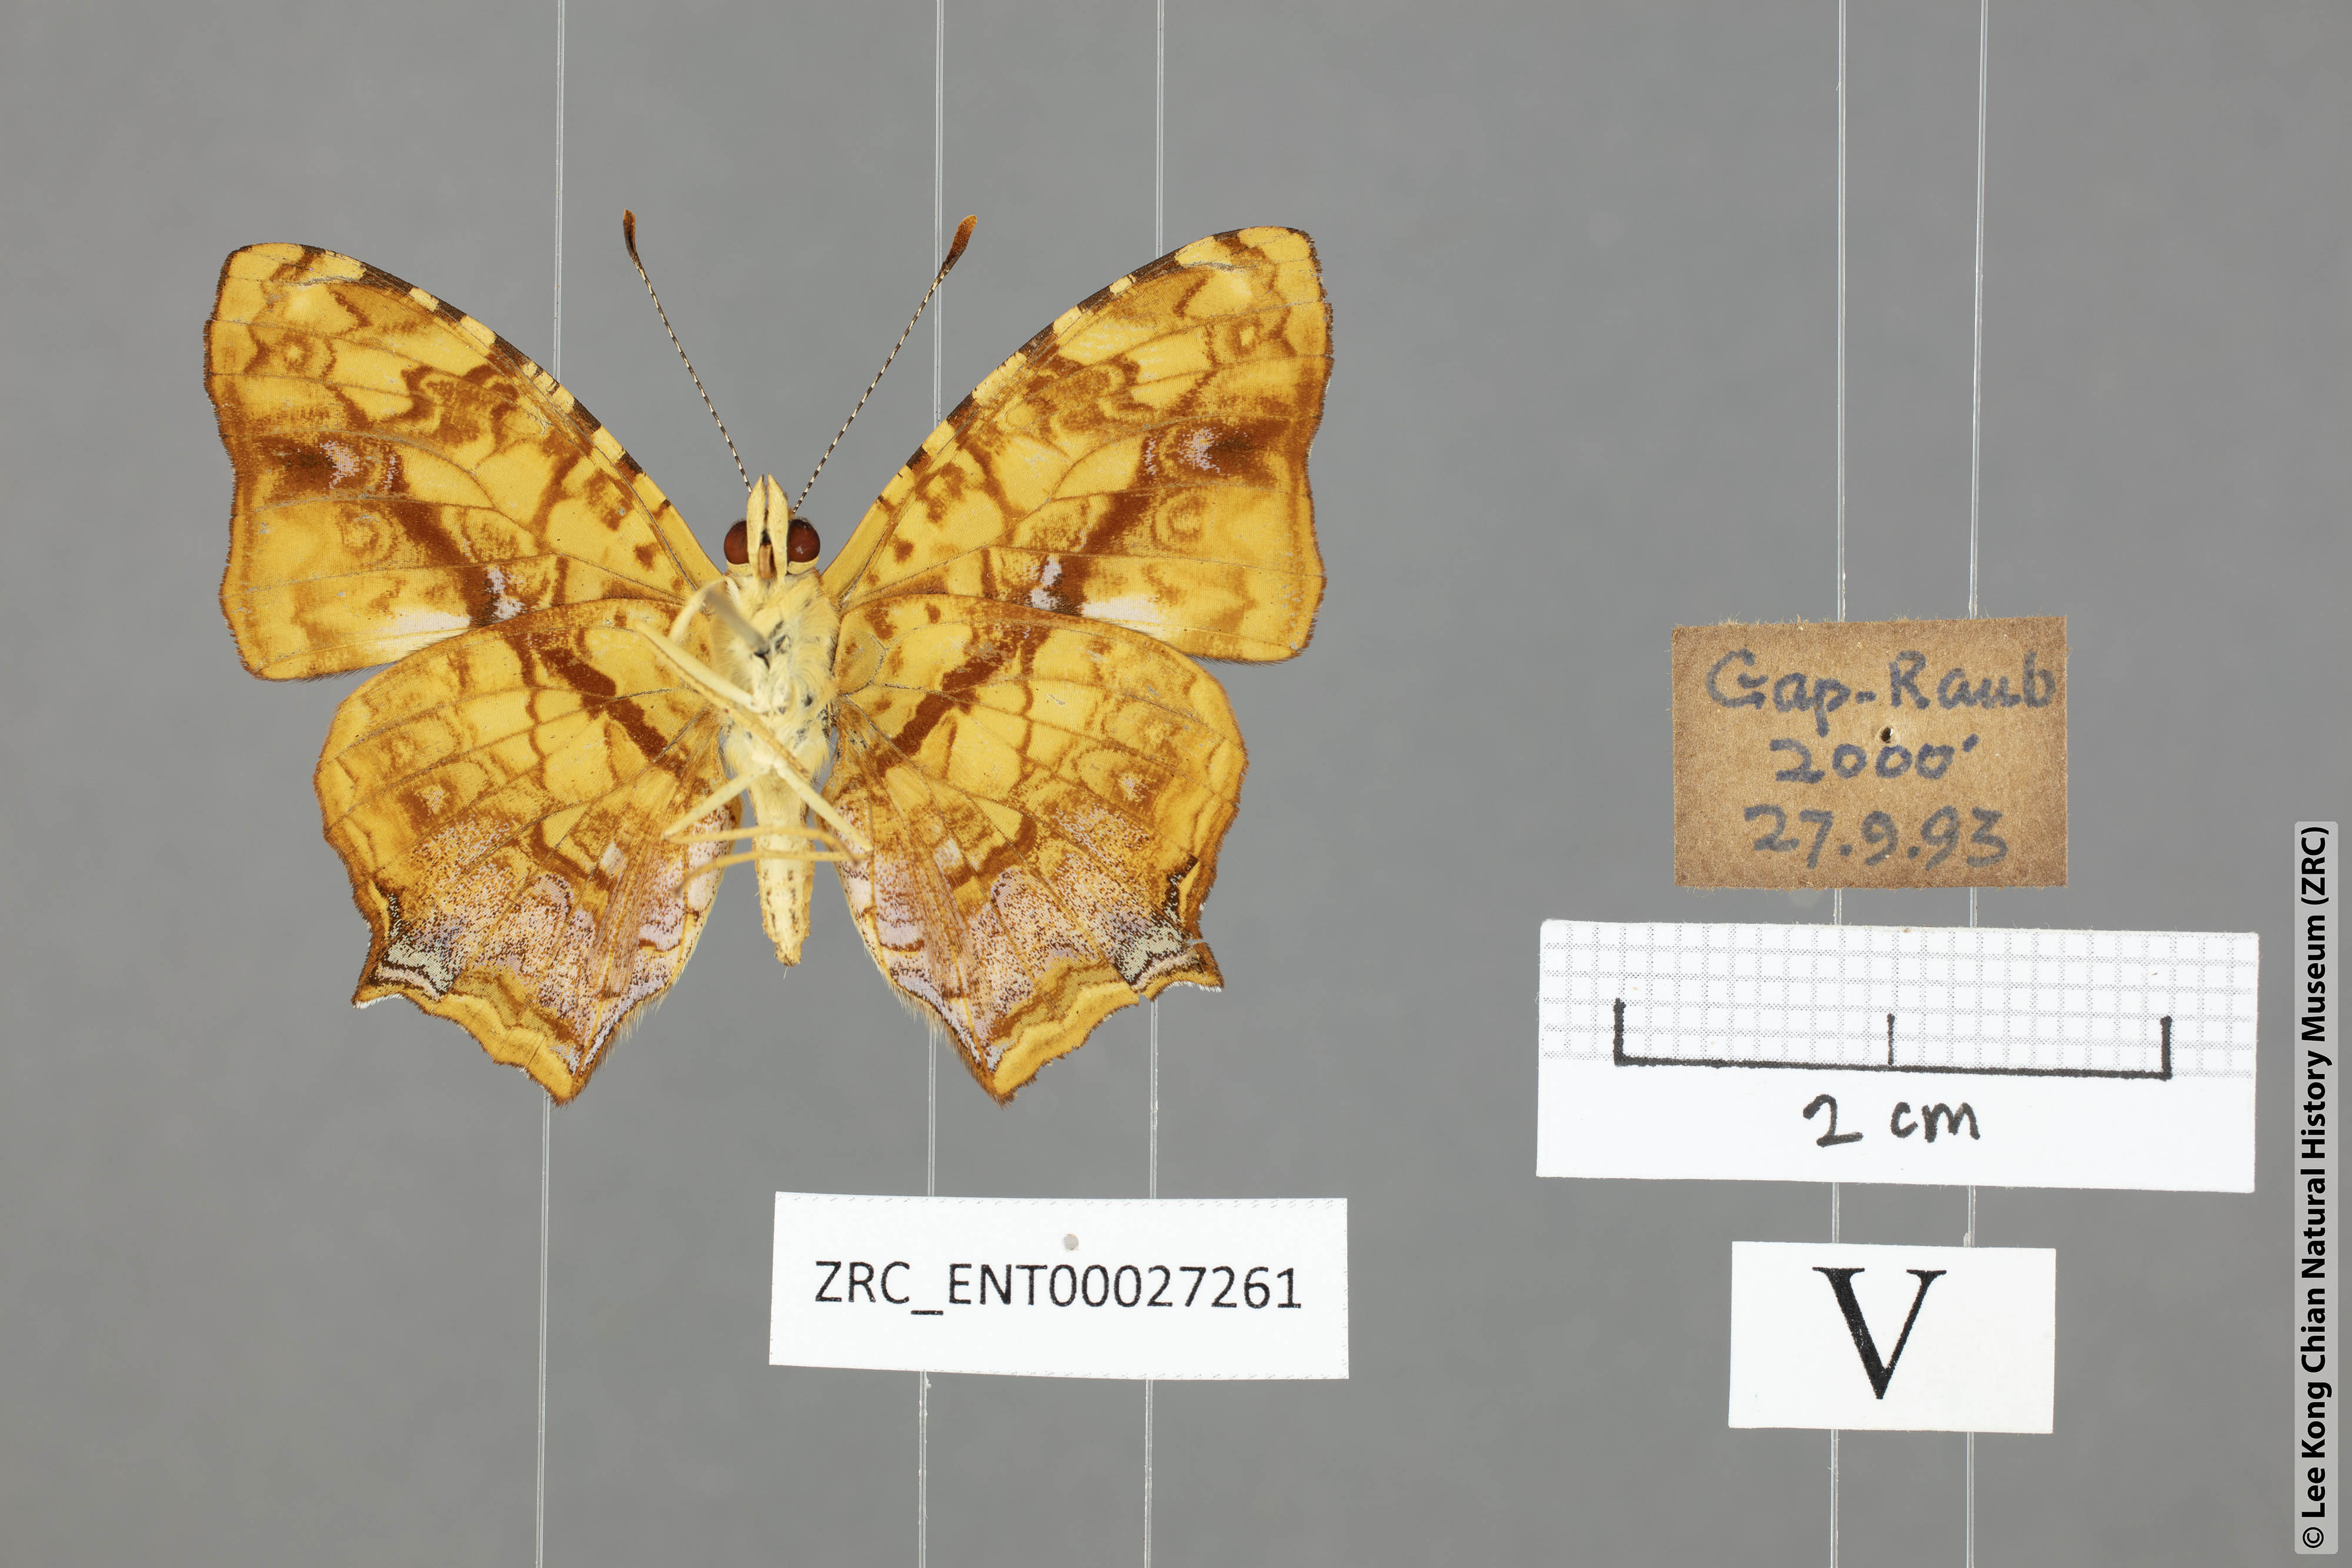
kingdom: Animalia
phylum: Arthropoda
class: Insecta
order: Lepidoptera
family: Nymphalidae
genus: Symbrenthia
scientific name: Symbrenthia hypselis
